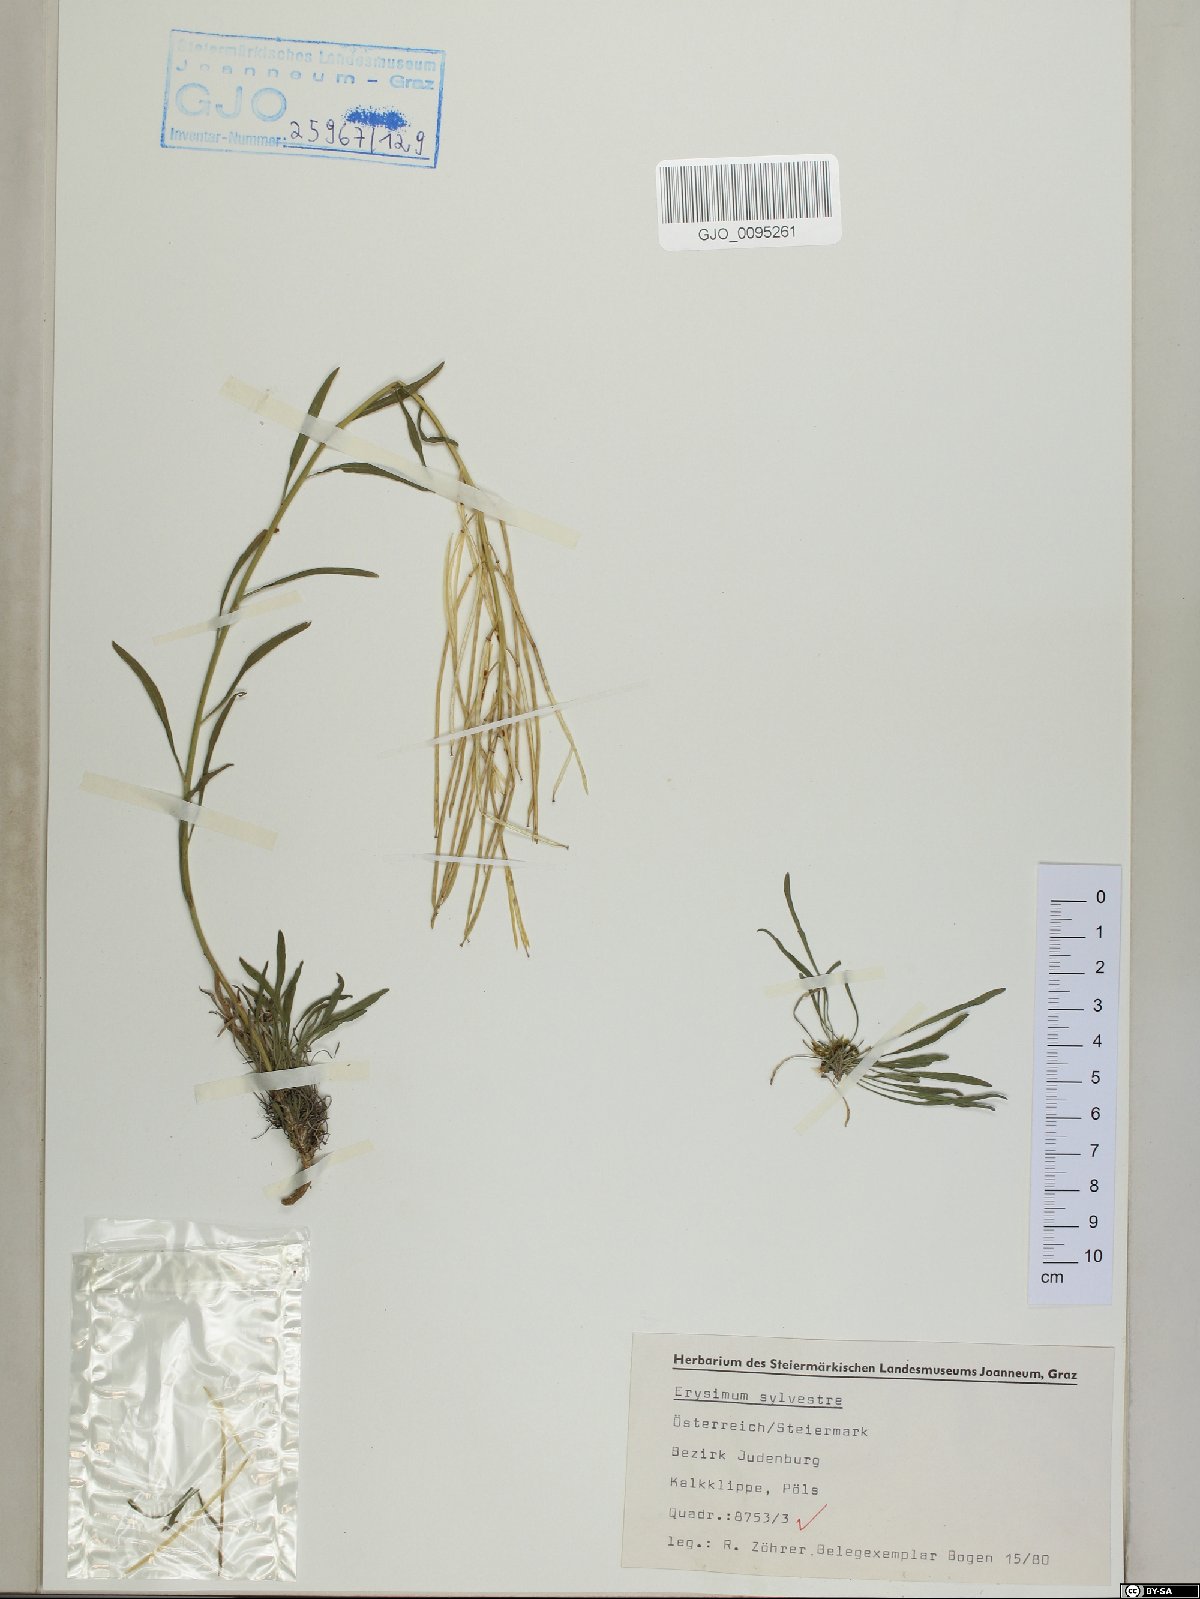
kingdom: Plantae
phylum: Tracheophyta
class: Magnoliopsida
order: Brassicales
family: Brassicaceae
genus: Erysimum
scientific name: Erysimum sylvestre
